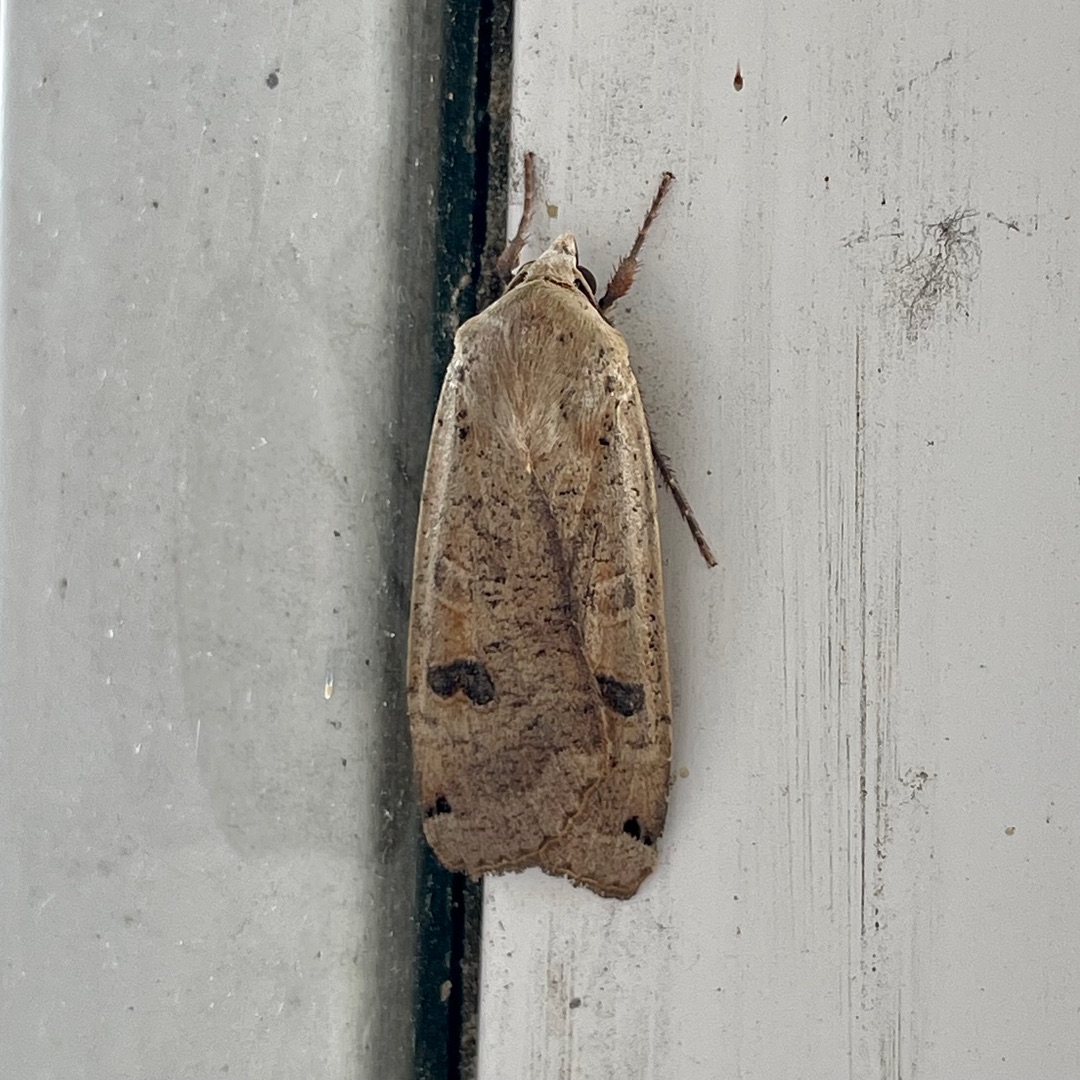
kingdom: Animalia
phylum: Arthropoda
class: Insecta
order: Lepidoptera
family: Noctuidae
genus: Noctua
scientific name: Noctua pronuba
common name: Stor smutugle
